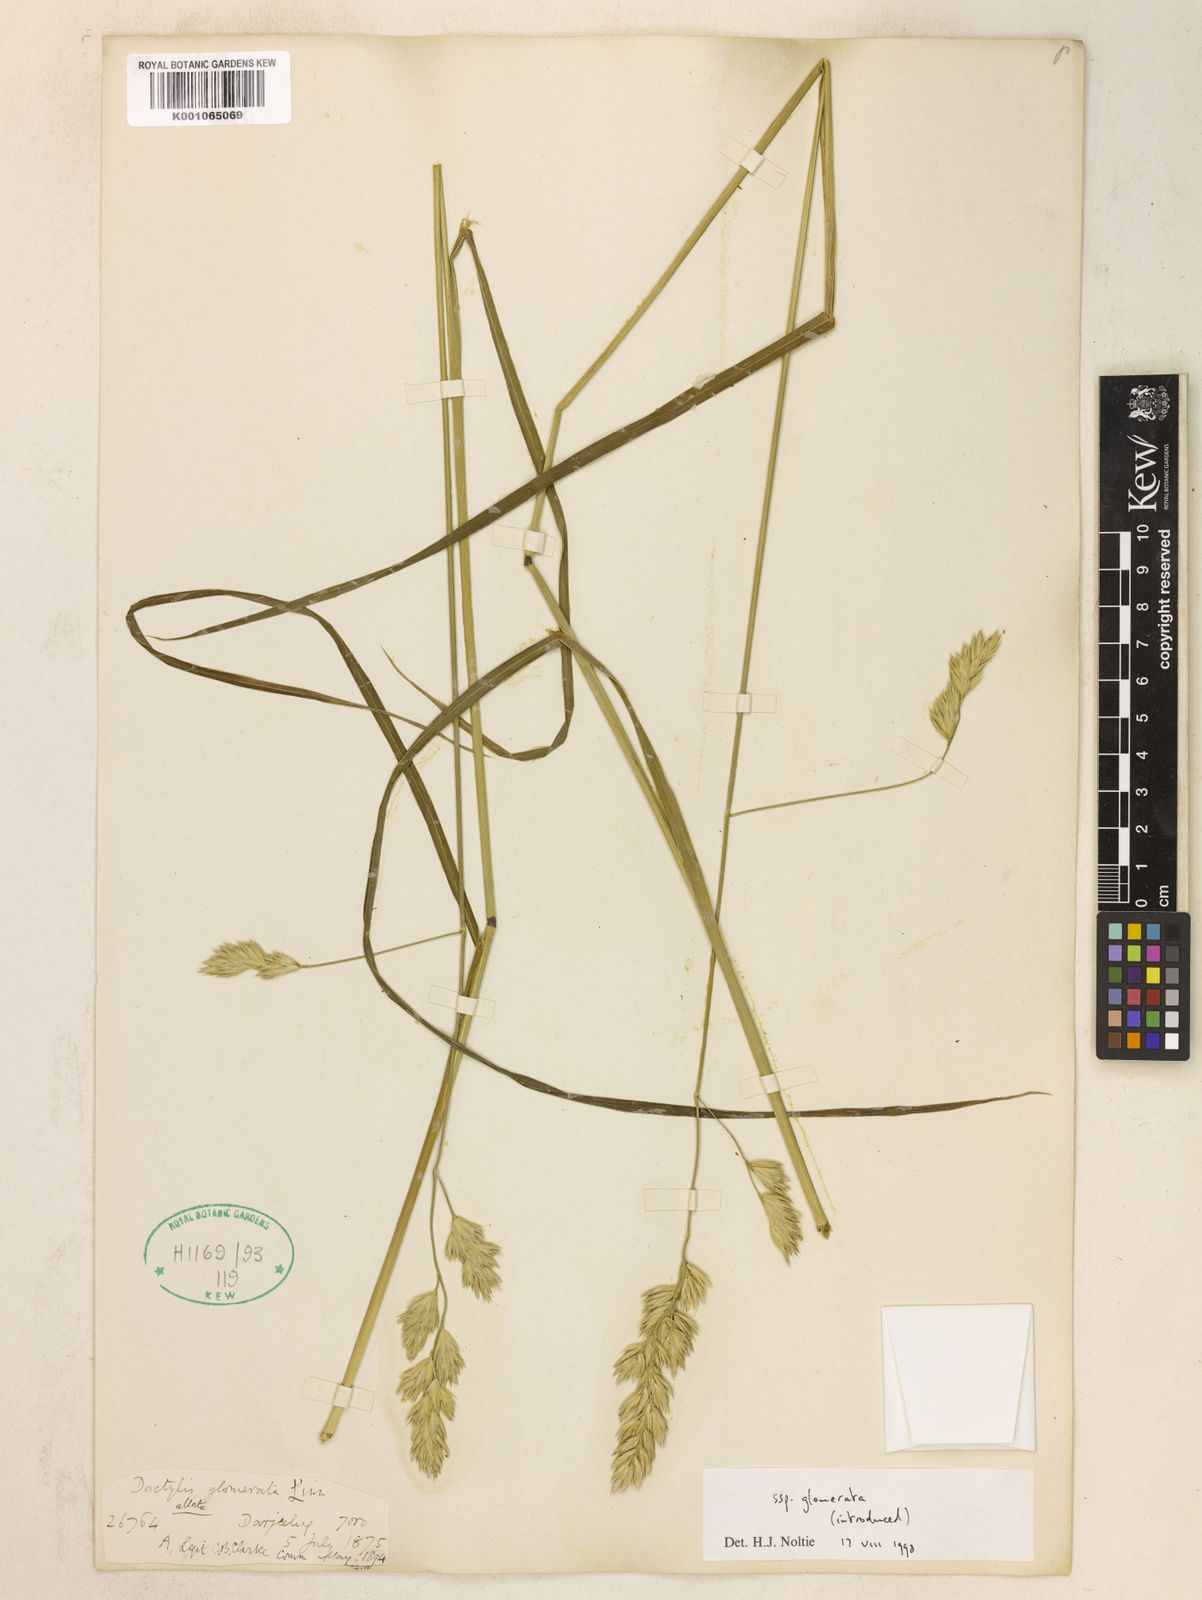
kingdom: Plantae
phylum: Tracheophyta
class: Liliopsida
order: Poales
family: Poaceae
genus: Dactylis
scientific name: Dactylis glomerata
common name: Orchardgrass
